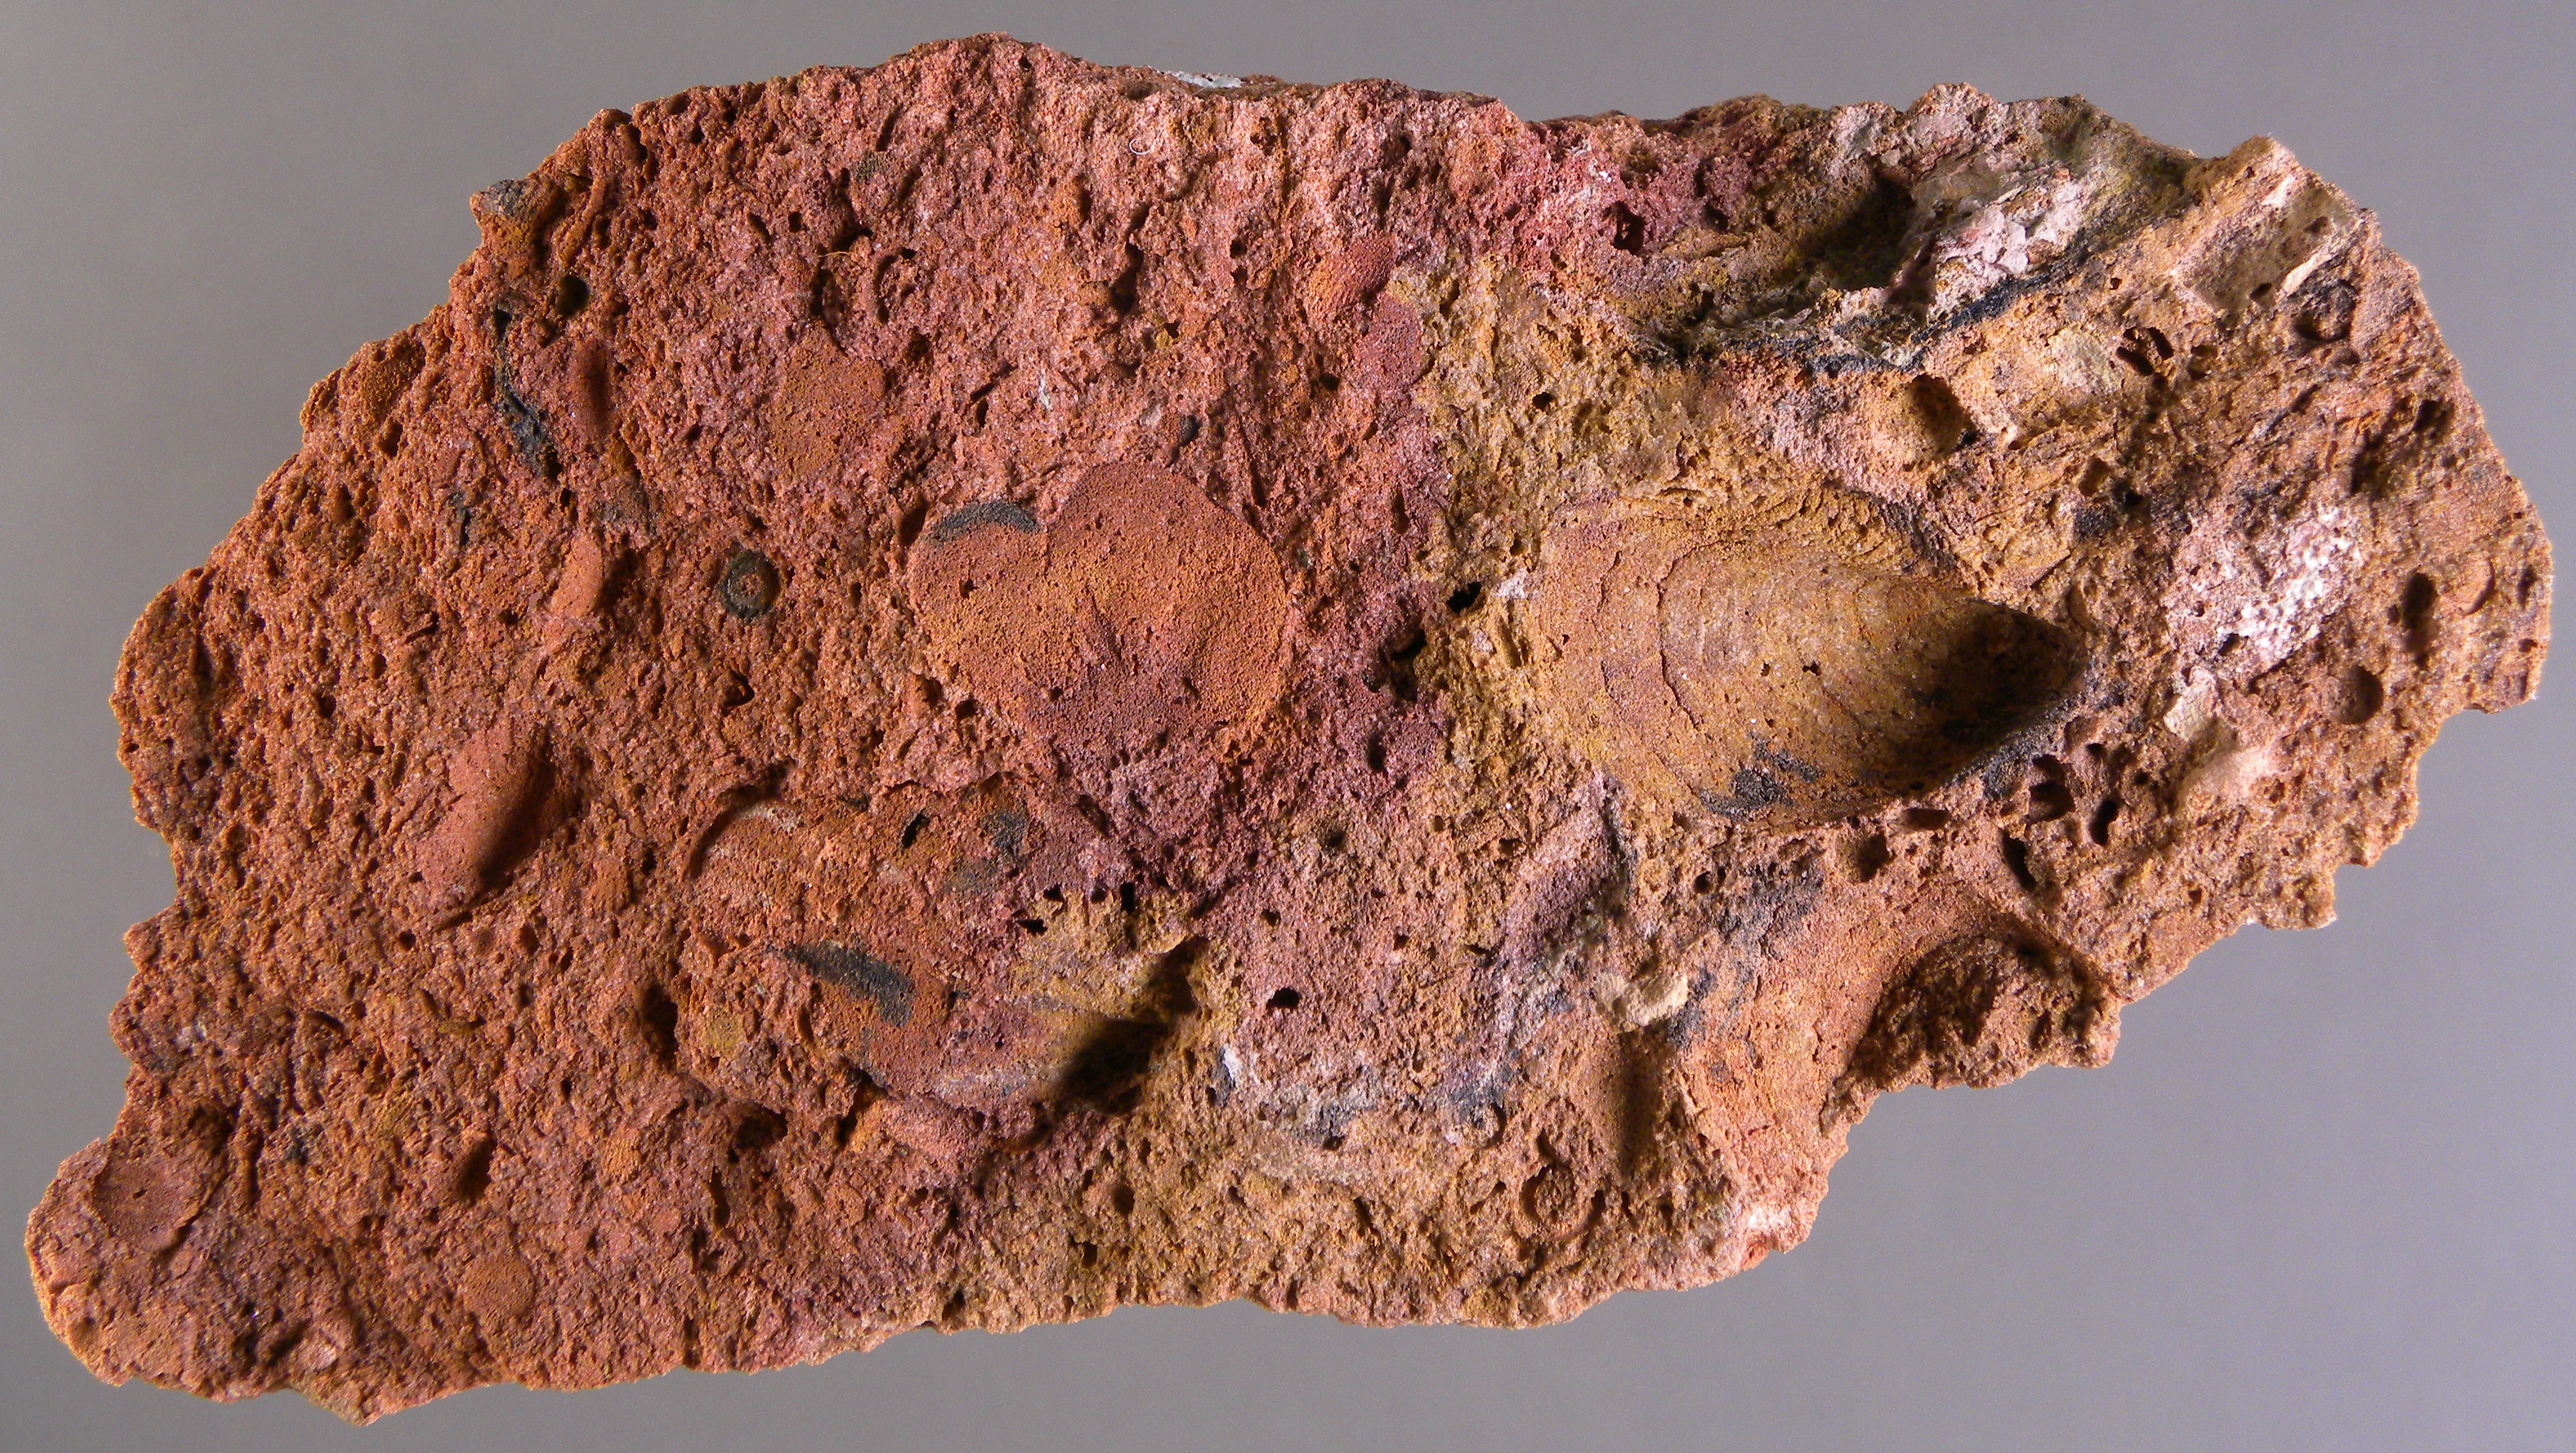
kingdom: Animalia
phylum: Mollusca
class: Bivalvia
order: Ostreida
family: Pterineidae
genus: Leptodesma
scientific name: Leptodesma
